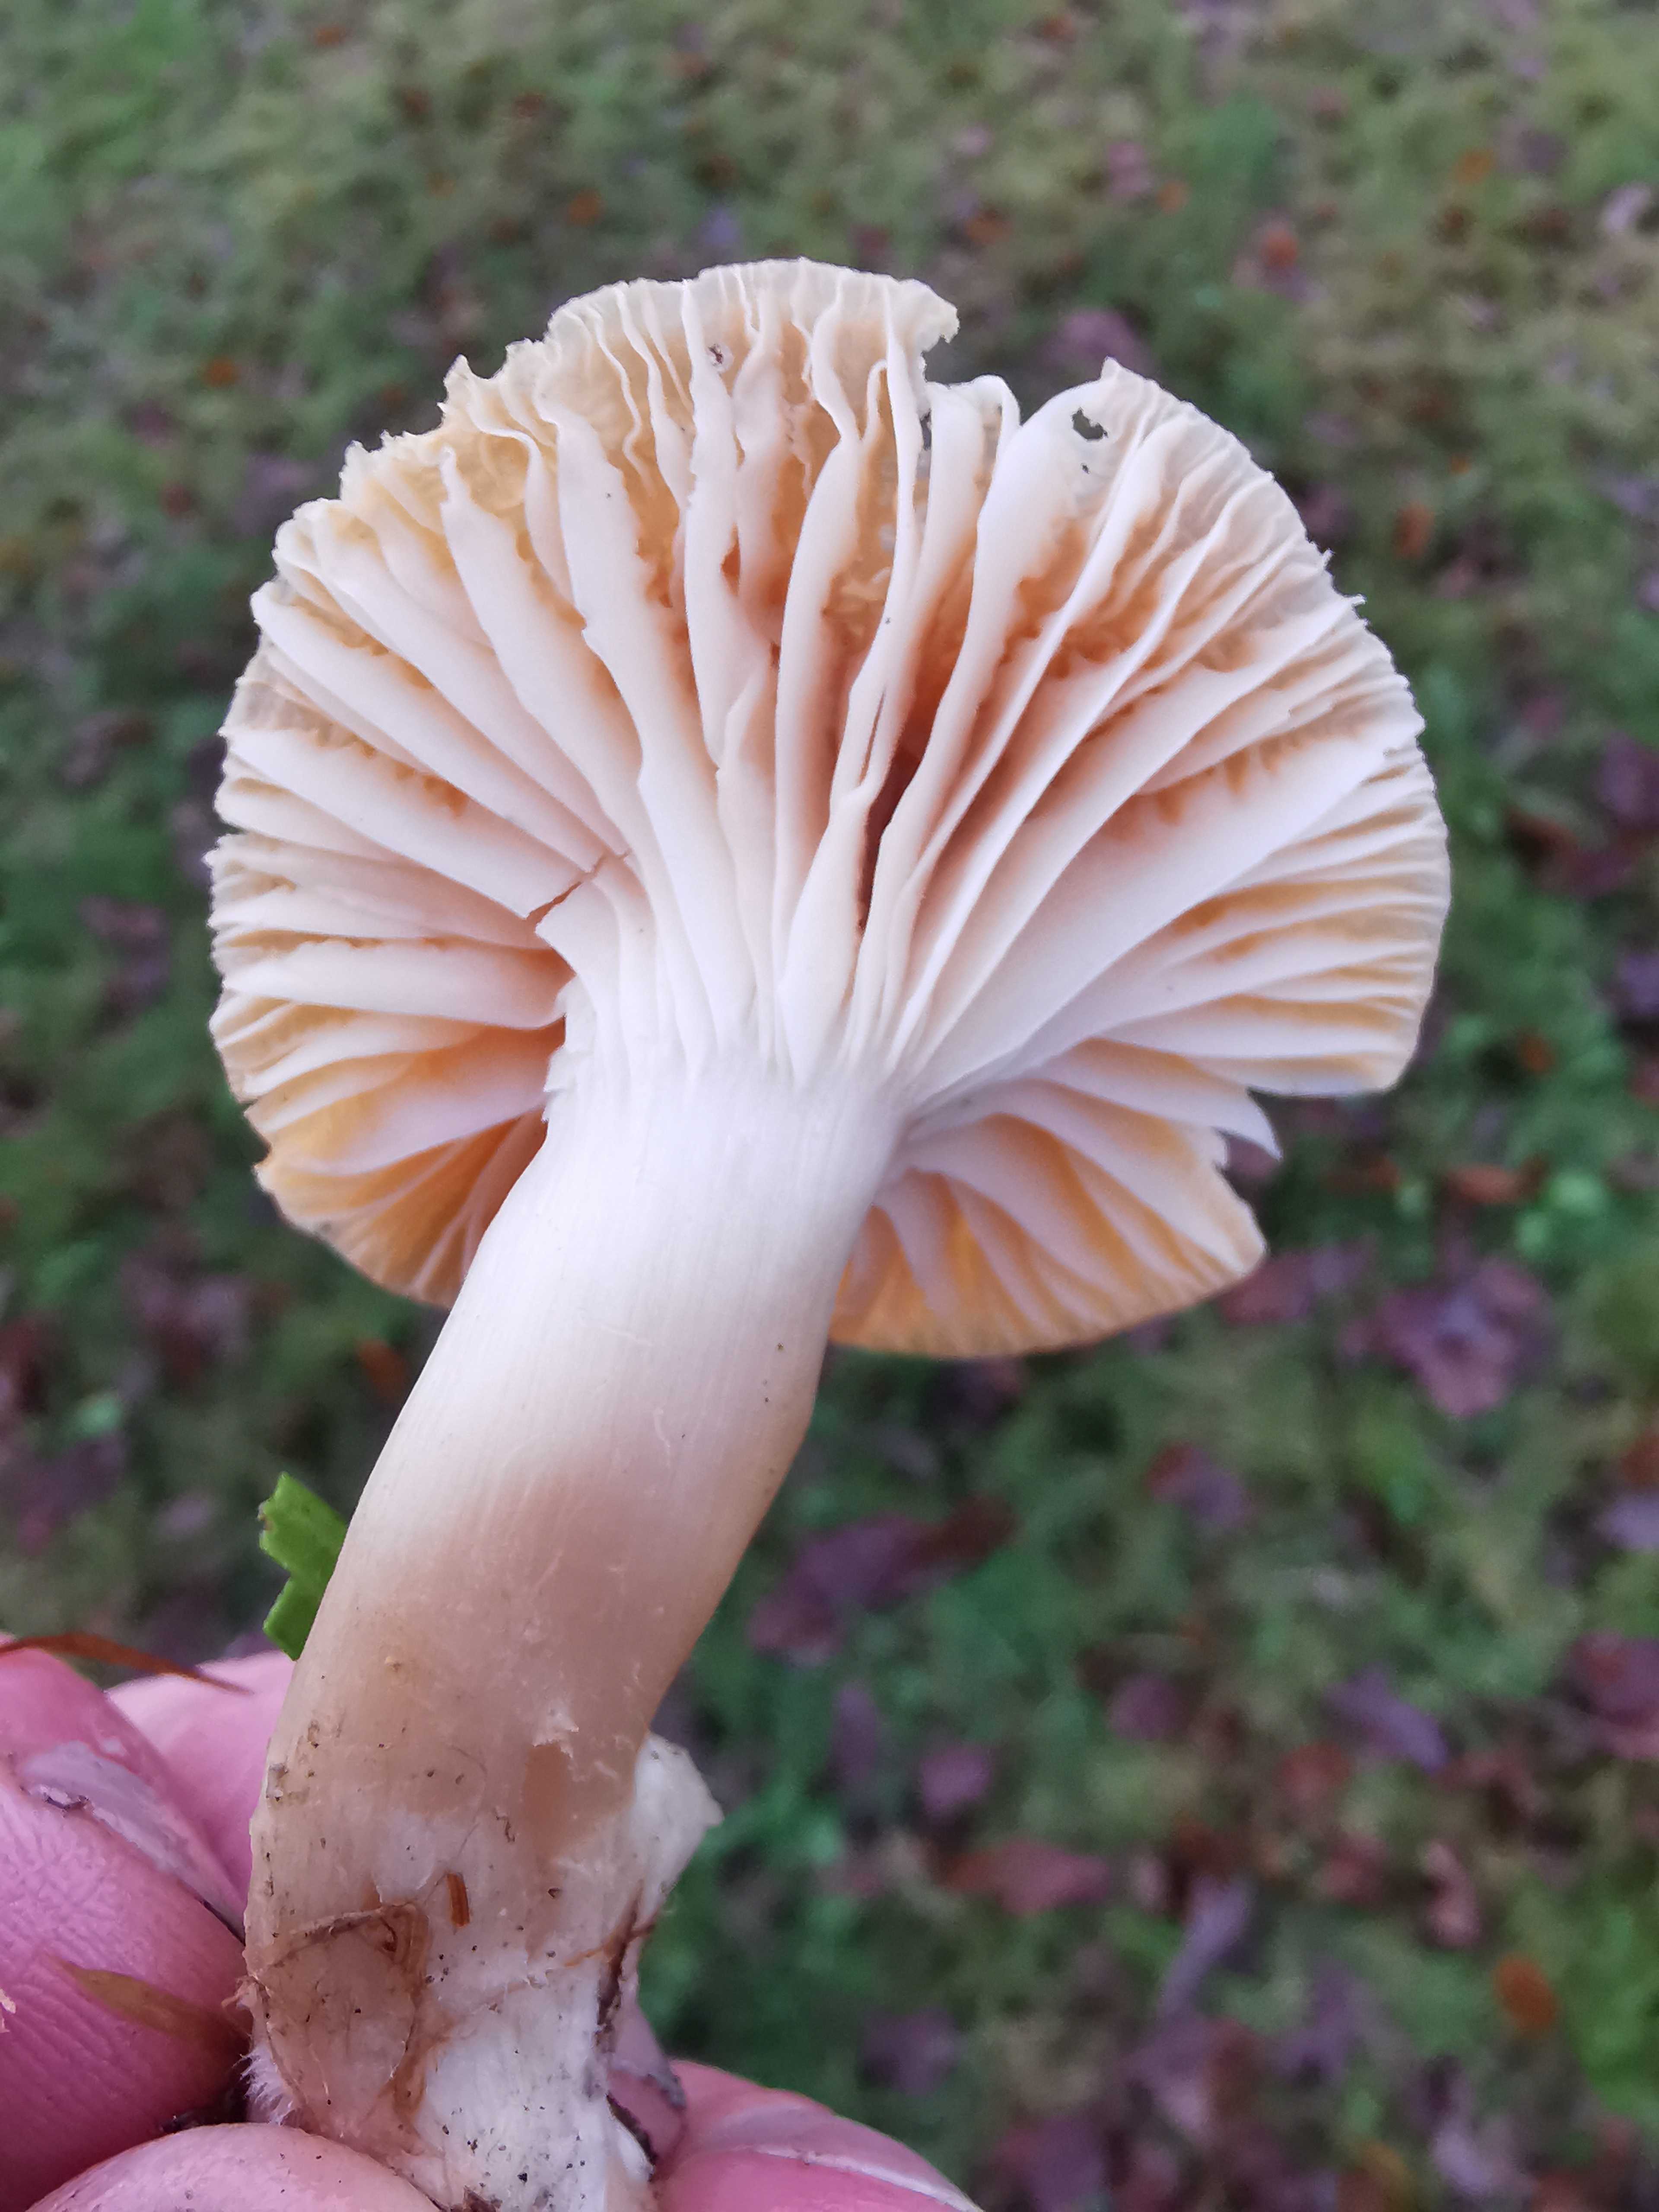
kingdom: Fungi
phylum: Basidiomycota
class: Agaricomycetes
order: Agaricales
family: Hygrophoraceae
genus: Cuphophyllus
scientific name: Cuphophyllus pratensis
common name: eng-vokshat
